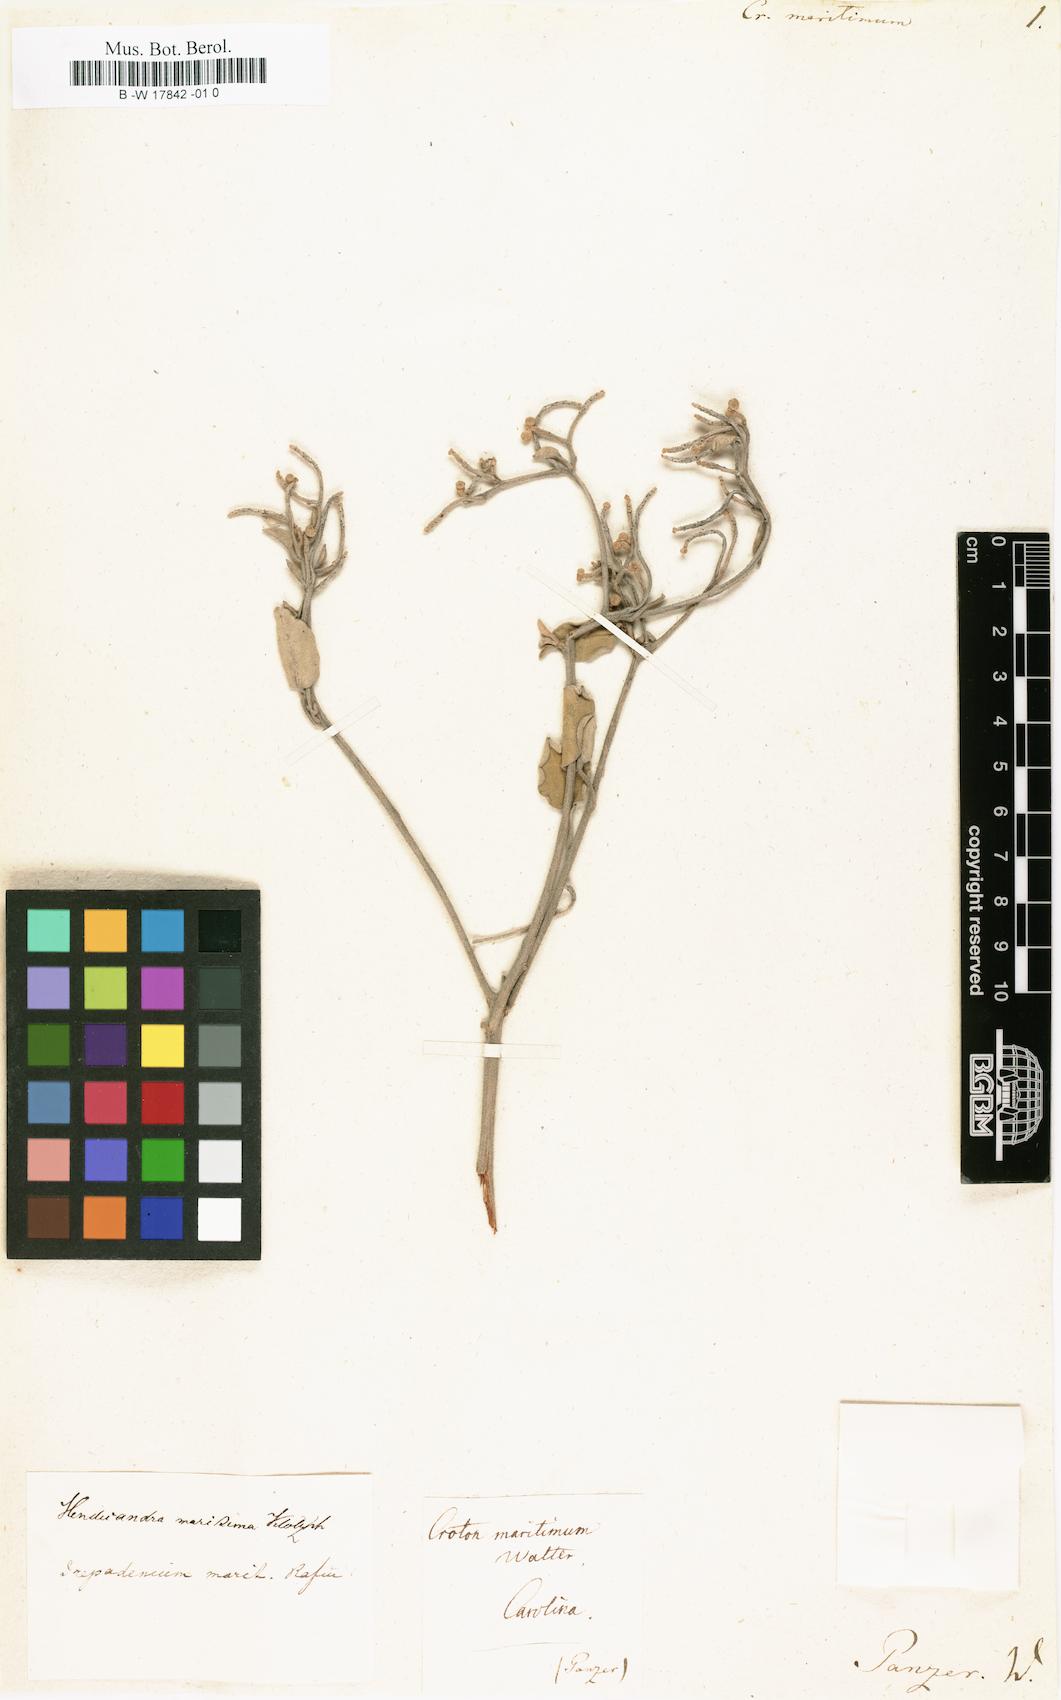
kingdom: Plantae
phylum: Tracheophyta
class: Magnoliopsida
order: Malpighiales
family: Euphorbiaceae
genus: Croton
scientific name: Croton punctatus
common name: Beach-tea
